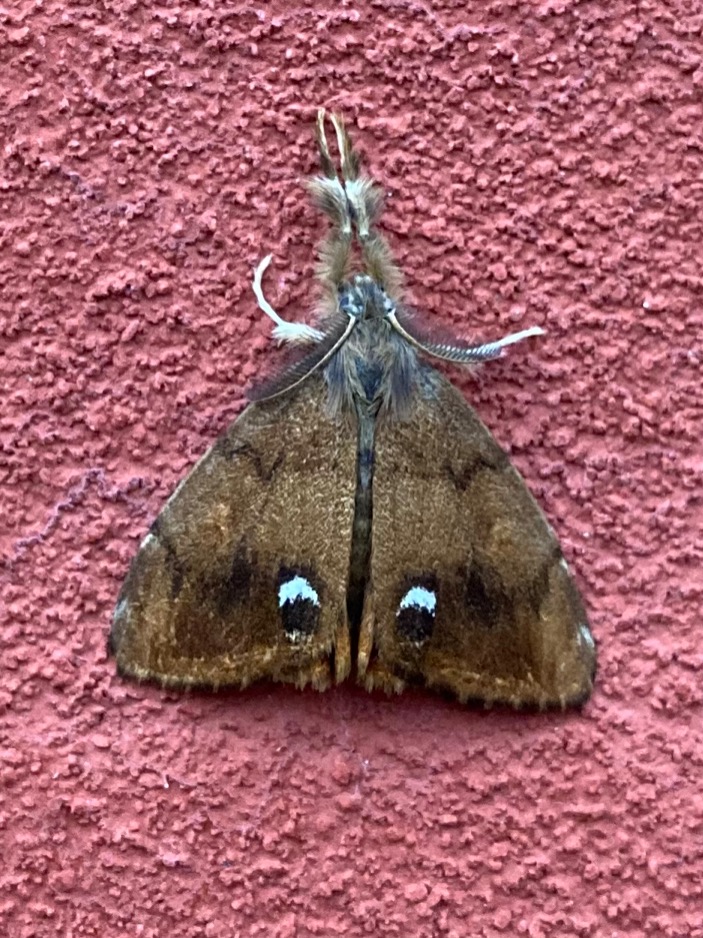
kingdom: Animalia
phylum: Arthropoda
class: Insecta
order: Lepidoptera
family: Erebidae
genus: Orgyia
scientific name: Orgyia antiqua
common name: Lille penselspinder
